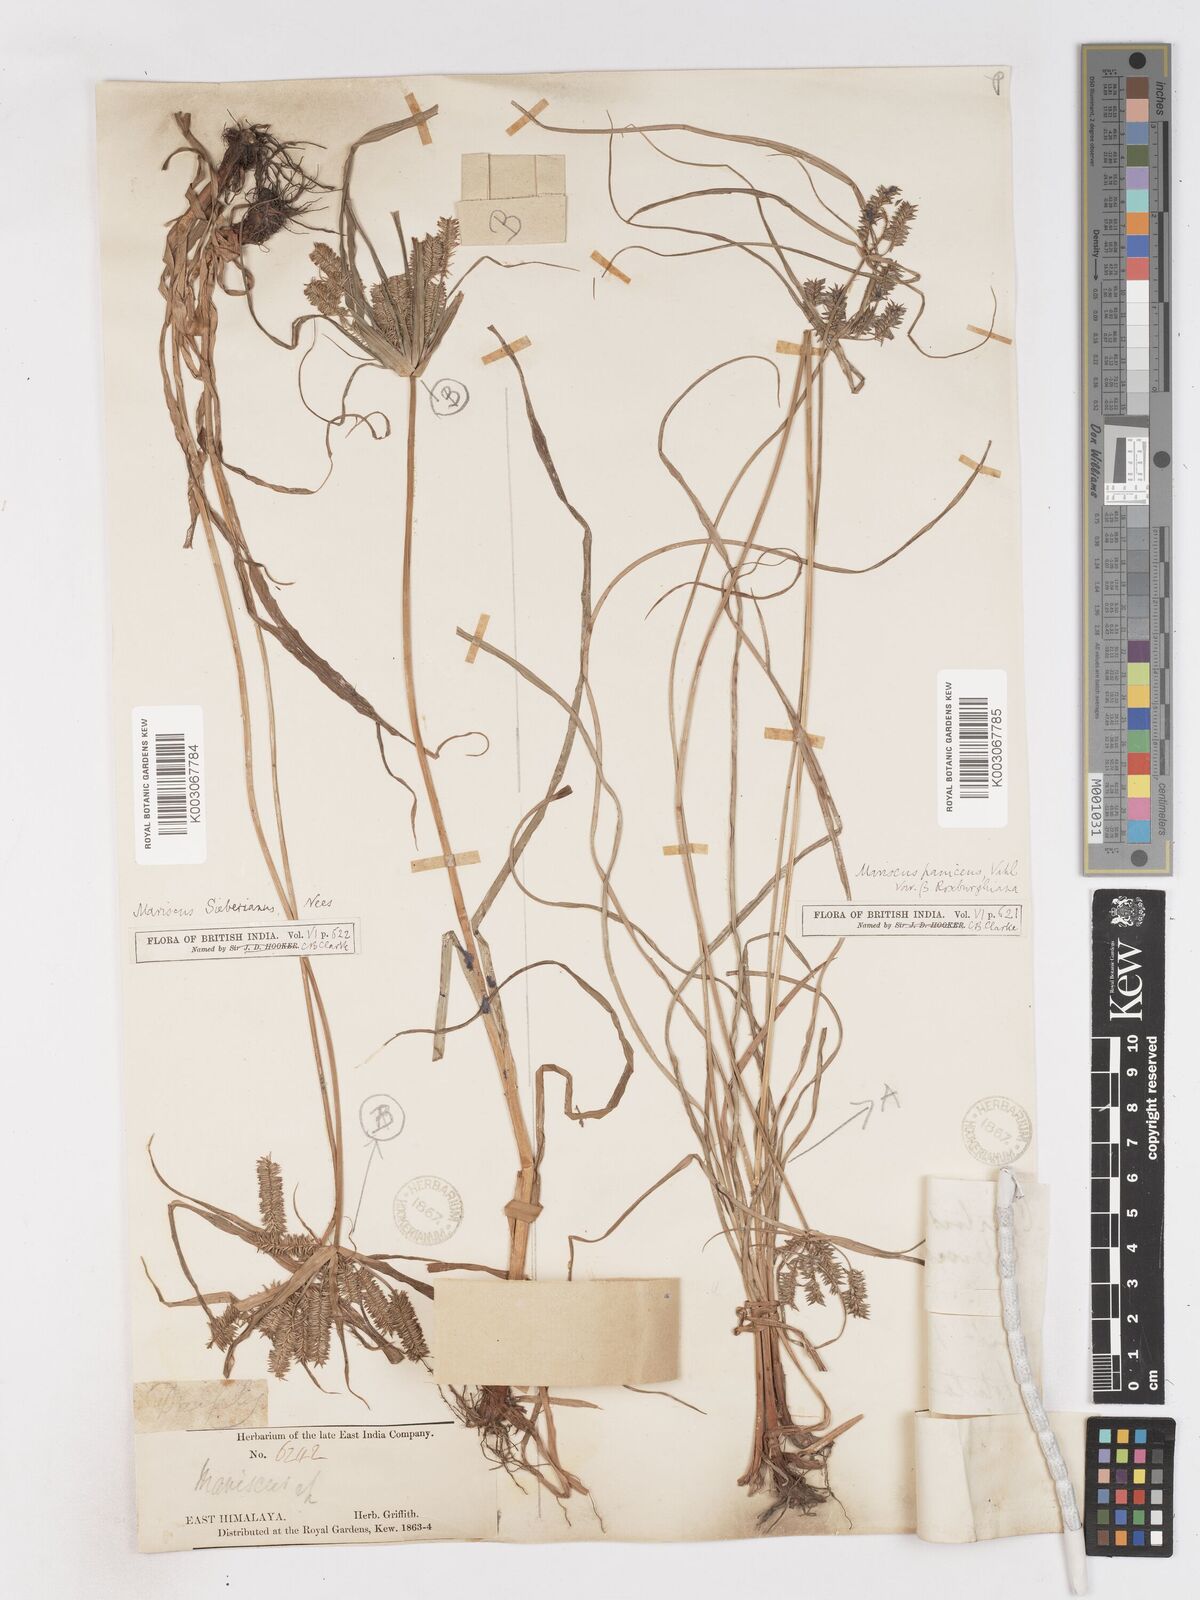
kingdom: Plantae
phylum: Tracheophyta
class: Liliopsida
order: Poales
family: Cyperaceae
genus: Cyperus
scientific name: Cyperus cyperoides
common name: Pacific island flat sedge
